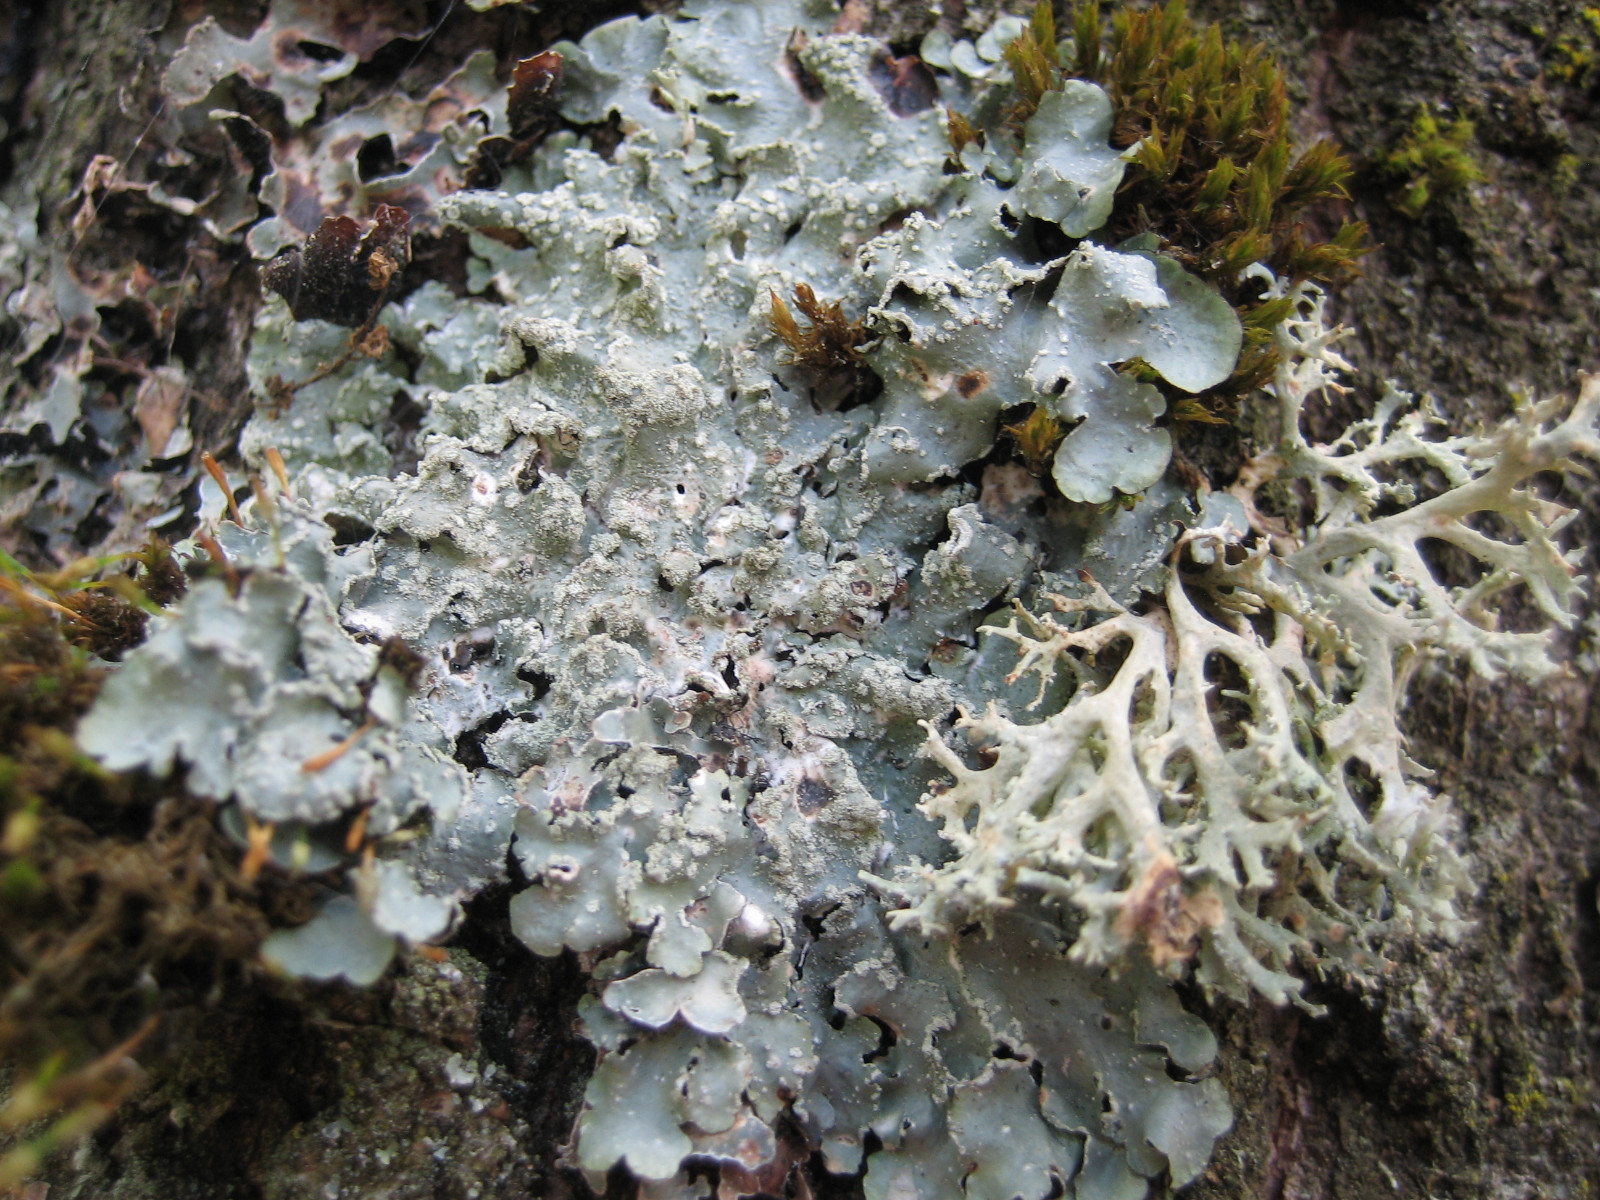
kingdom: Fungi
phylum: Ascomycota
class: Lecanoromycetes
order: Lecanorales
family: Parmeliaceae
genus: Punctelia
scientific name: Punctelia subrudecta
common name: punkt-skållav
